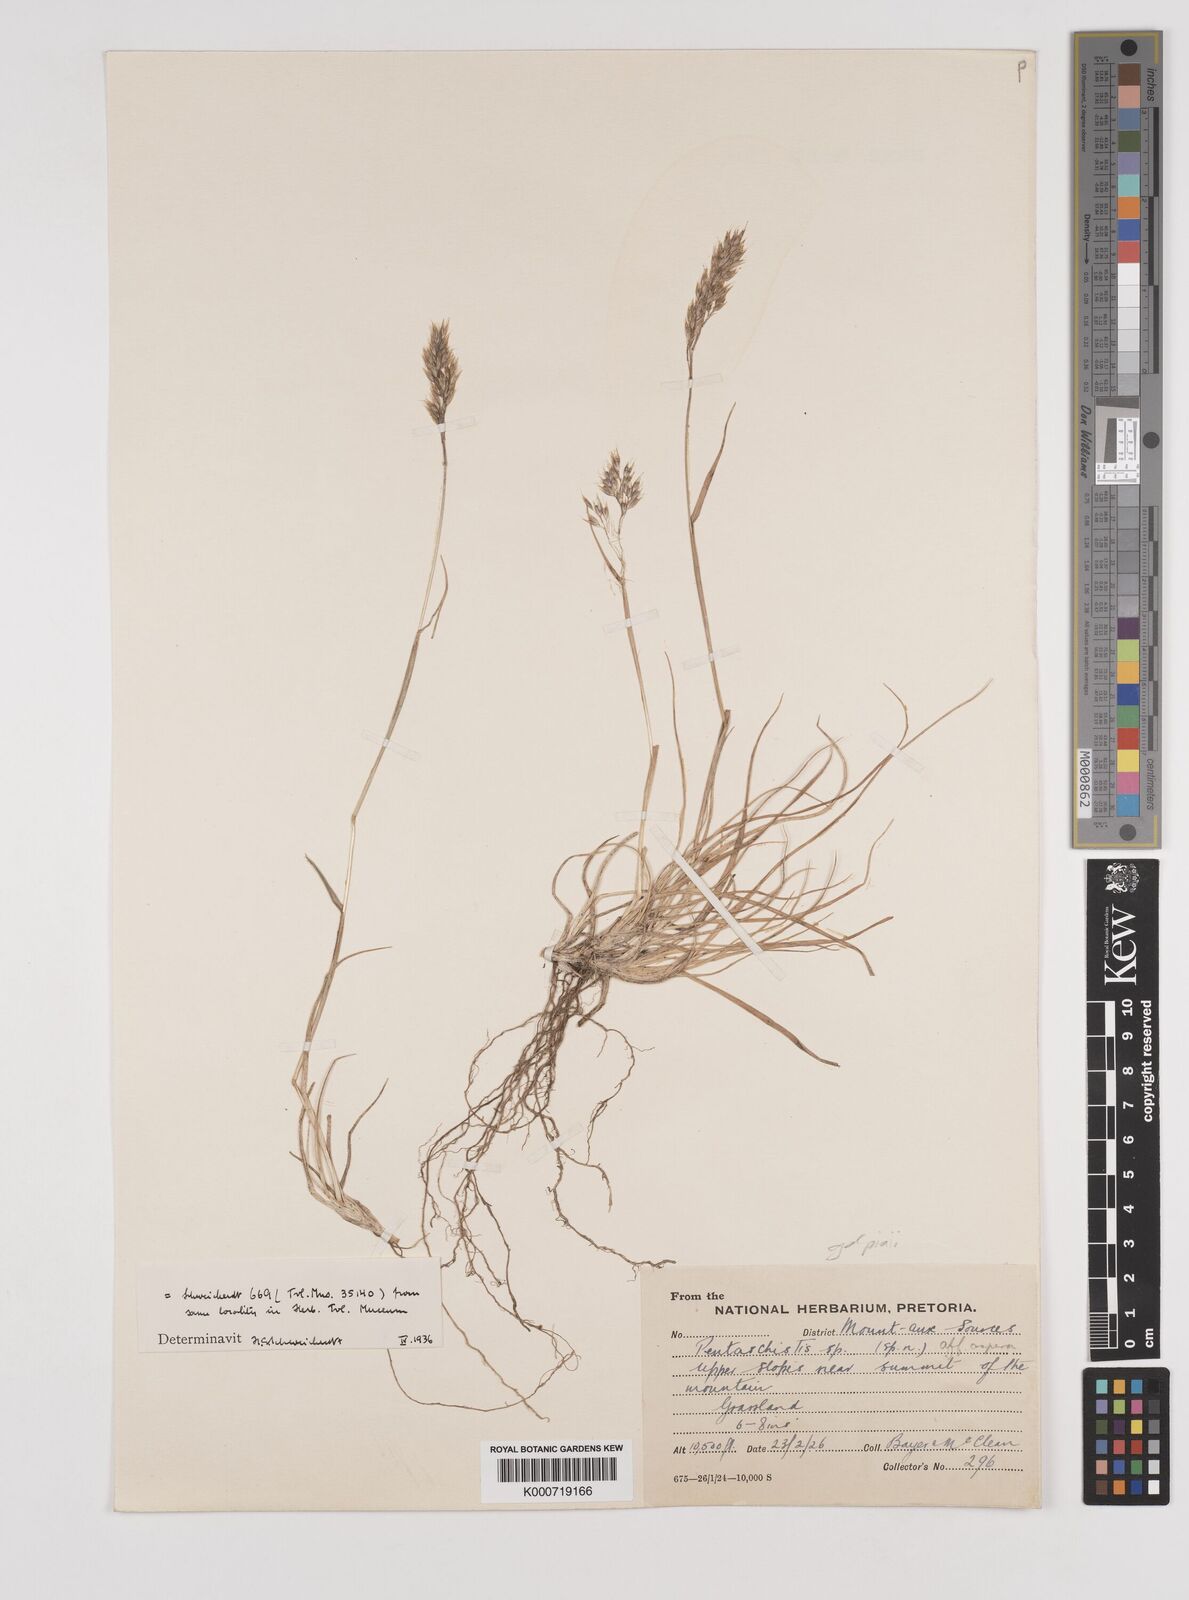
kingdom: Plantae
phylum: Tracheophyta
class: Liliopsida
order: Poales
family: Poaceae
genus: Pentameris
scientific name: Pentameris galpinii
